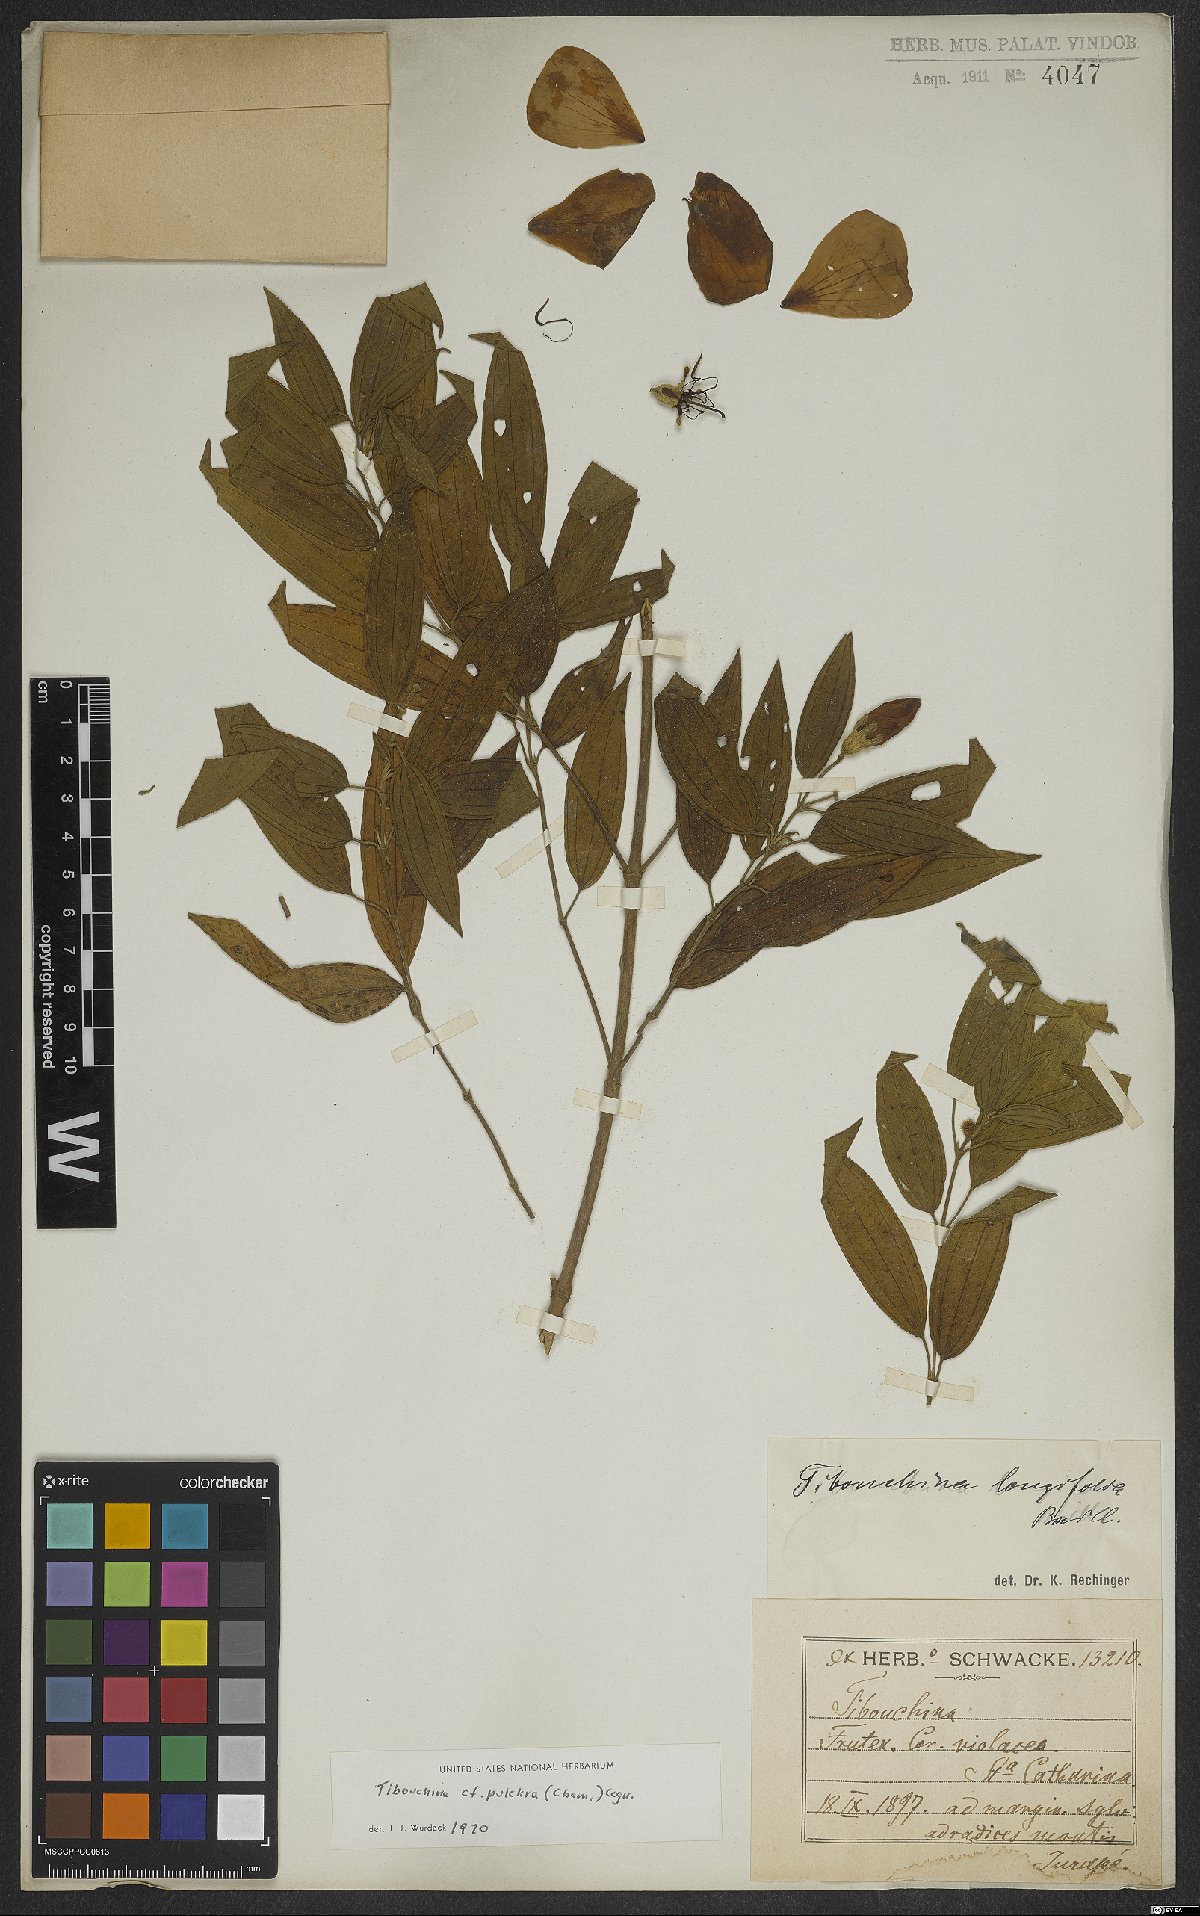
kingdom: Plantae
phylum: Tracheophyta
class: Magnoliopsida
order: Myrtales
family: Melastomataceae
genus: Pleroma
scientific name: Pleroma raddianum
